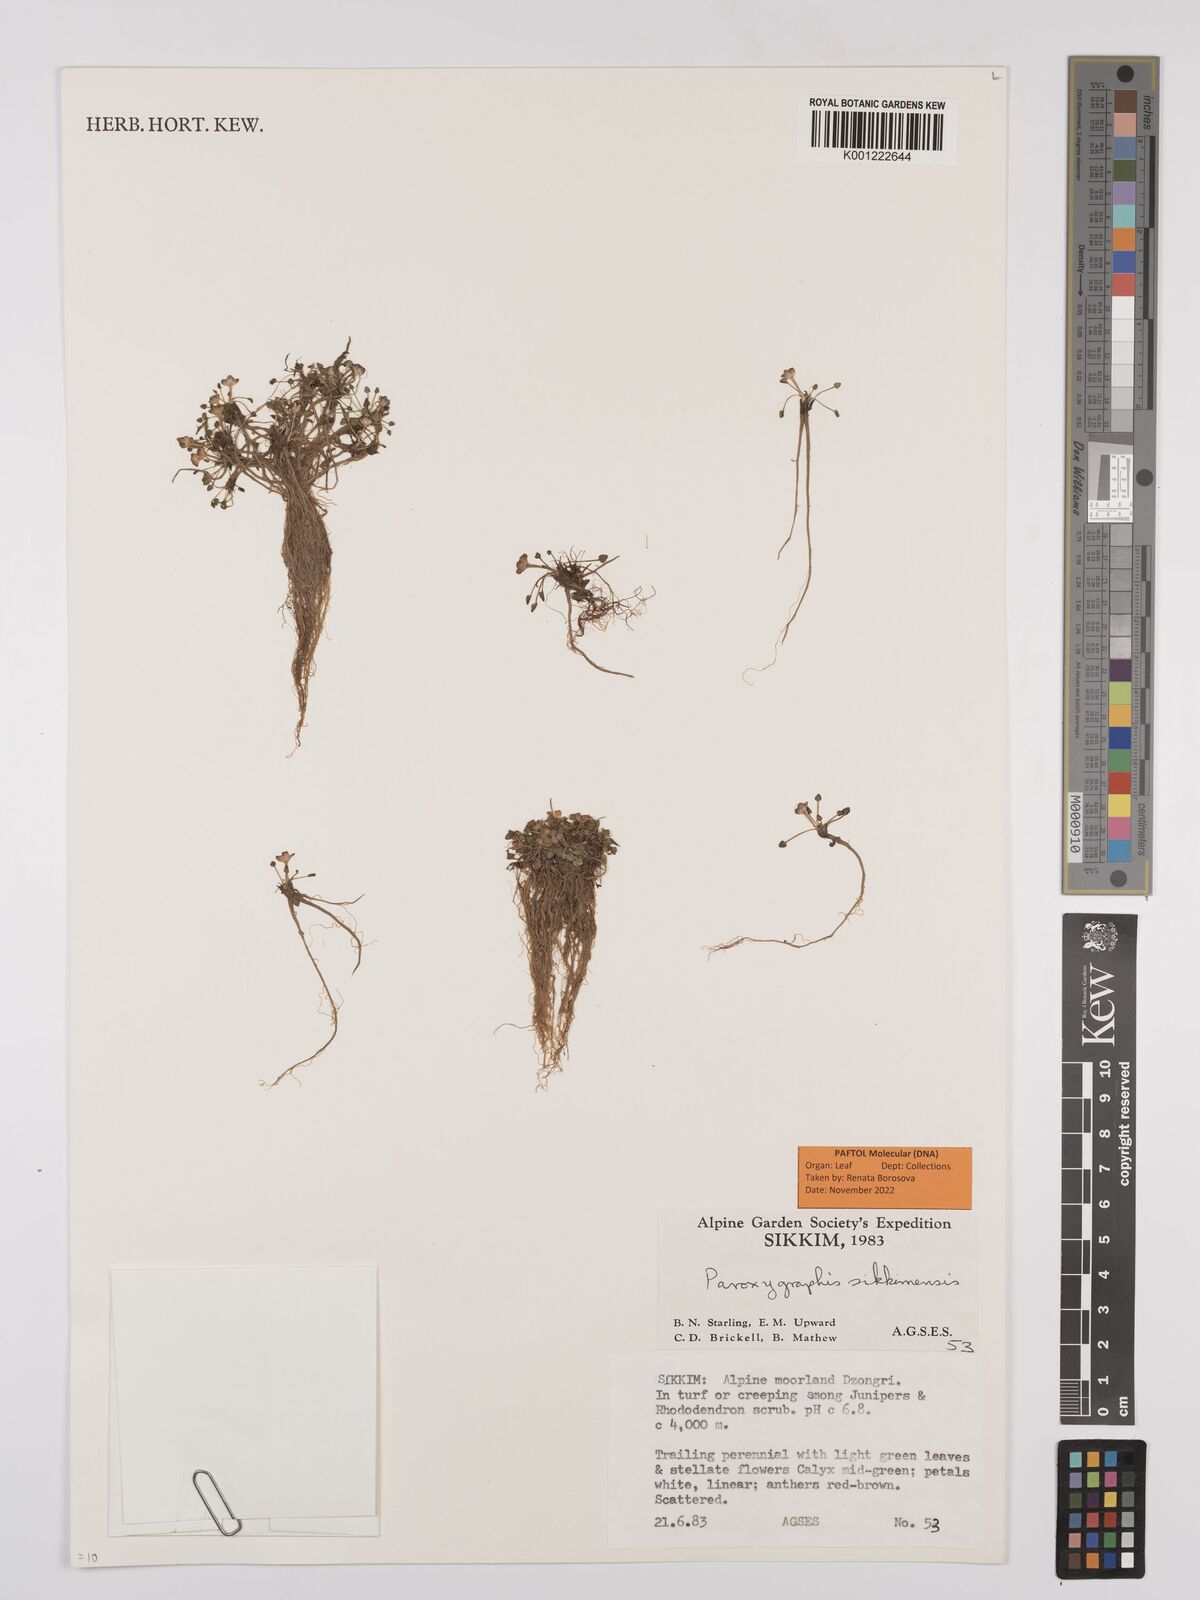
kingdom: Plantae
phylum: Tracheophyta
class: Magnoliopsida
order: Ranunculales
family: Ranunculaceae
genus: Paroxygraphis
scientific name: Paroxygraphis sikkimensis
